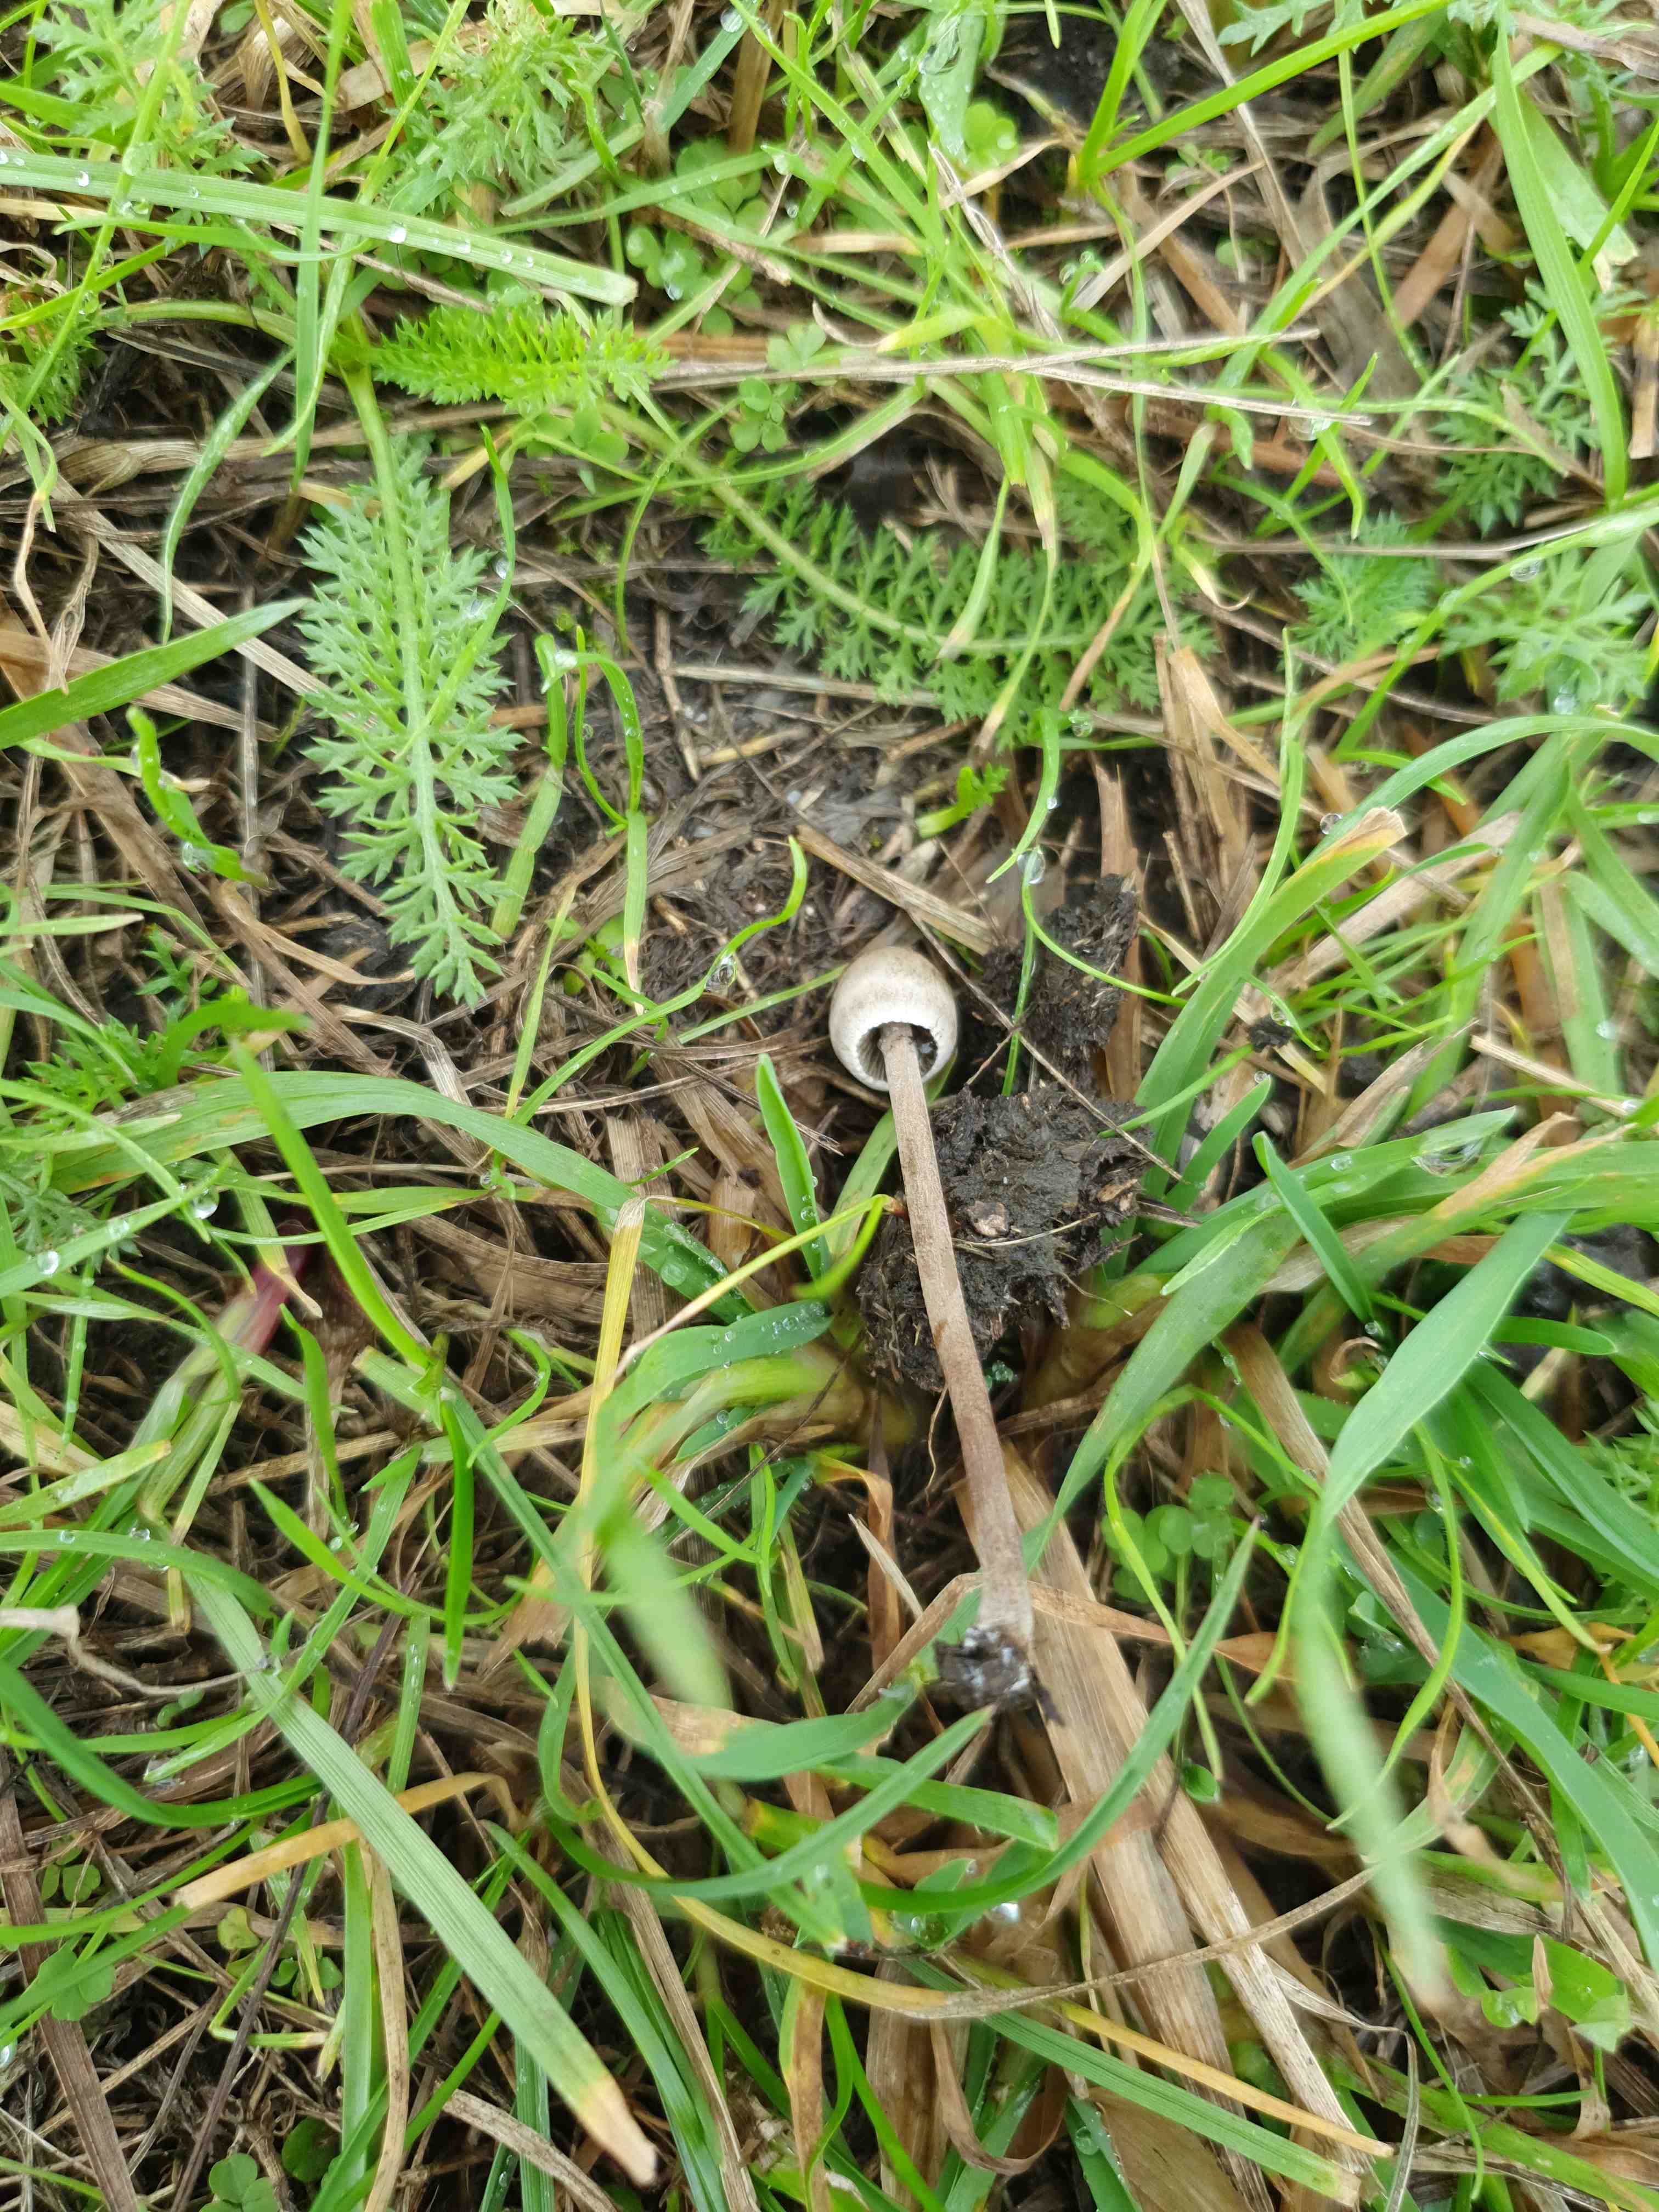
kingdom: Fungi
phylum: Basidiomycota
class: Agaricomycetes
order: Agaricales
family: Bolbitiaceae
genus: Panaeolus
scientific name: Panaeolus papilionaceus
